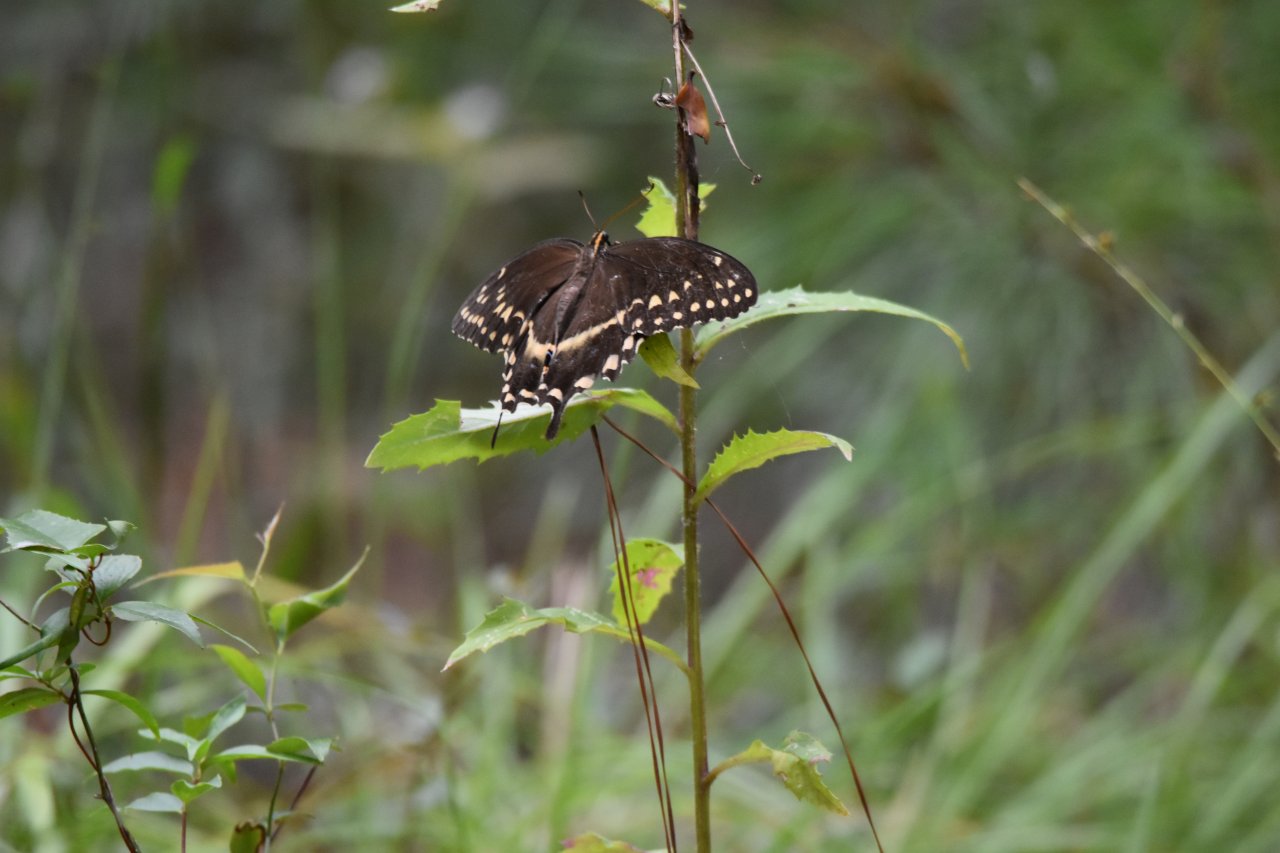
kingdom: Animalia
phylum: Arthropoda
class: Insecta
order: Lepidoptera
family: Papilionidae
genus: Pterourus
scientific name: Pterourus palamedes
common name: Palamedes Swallowtail
